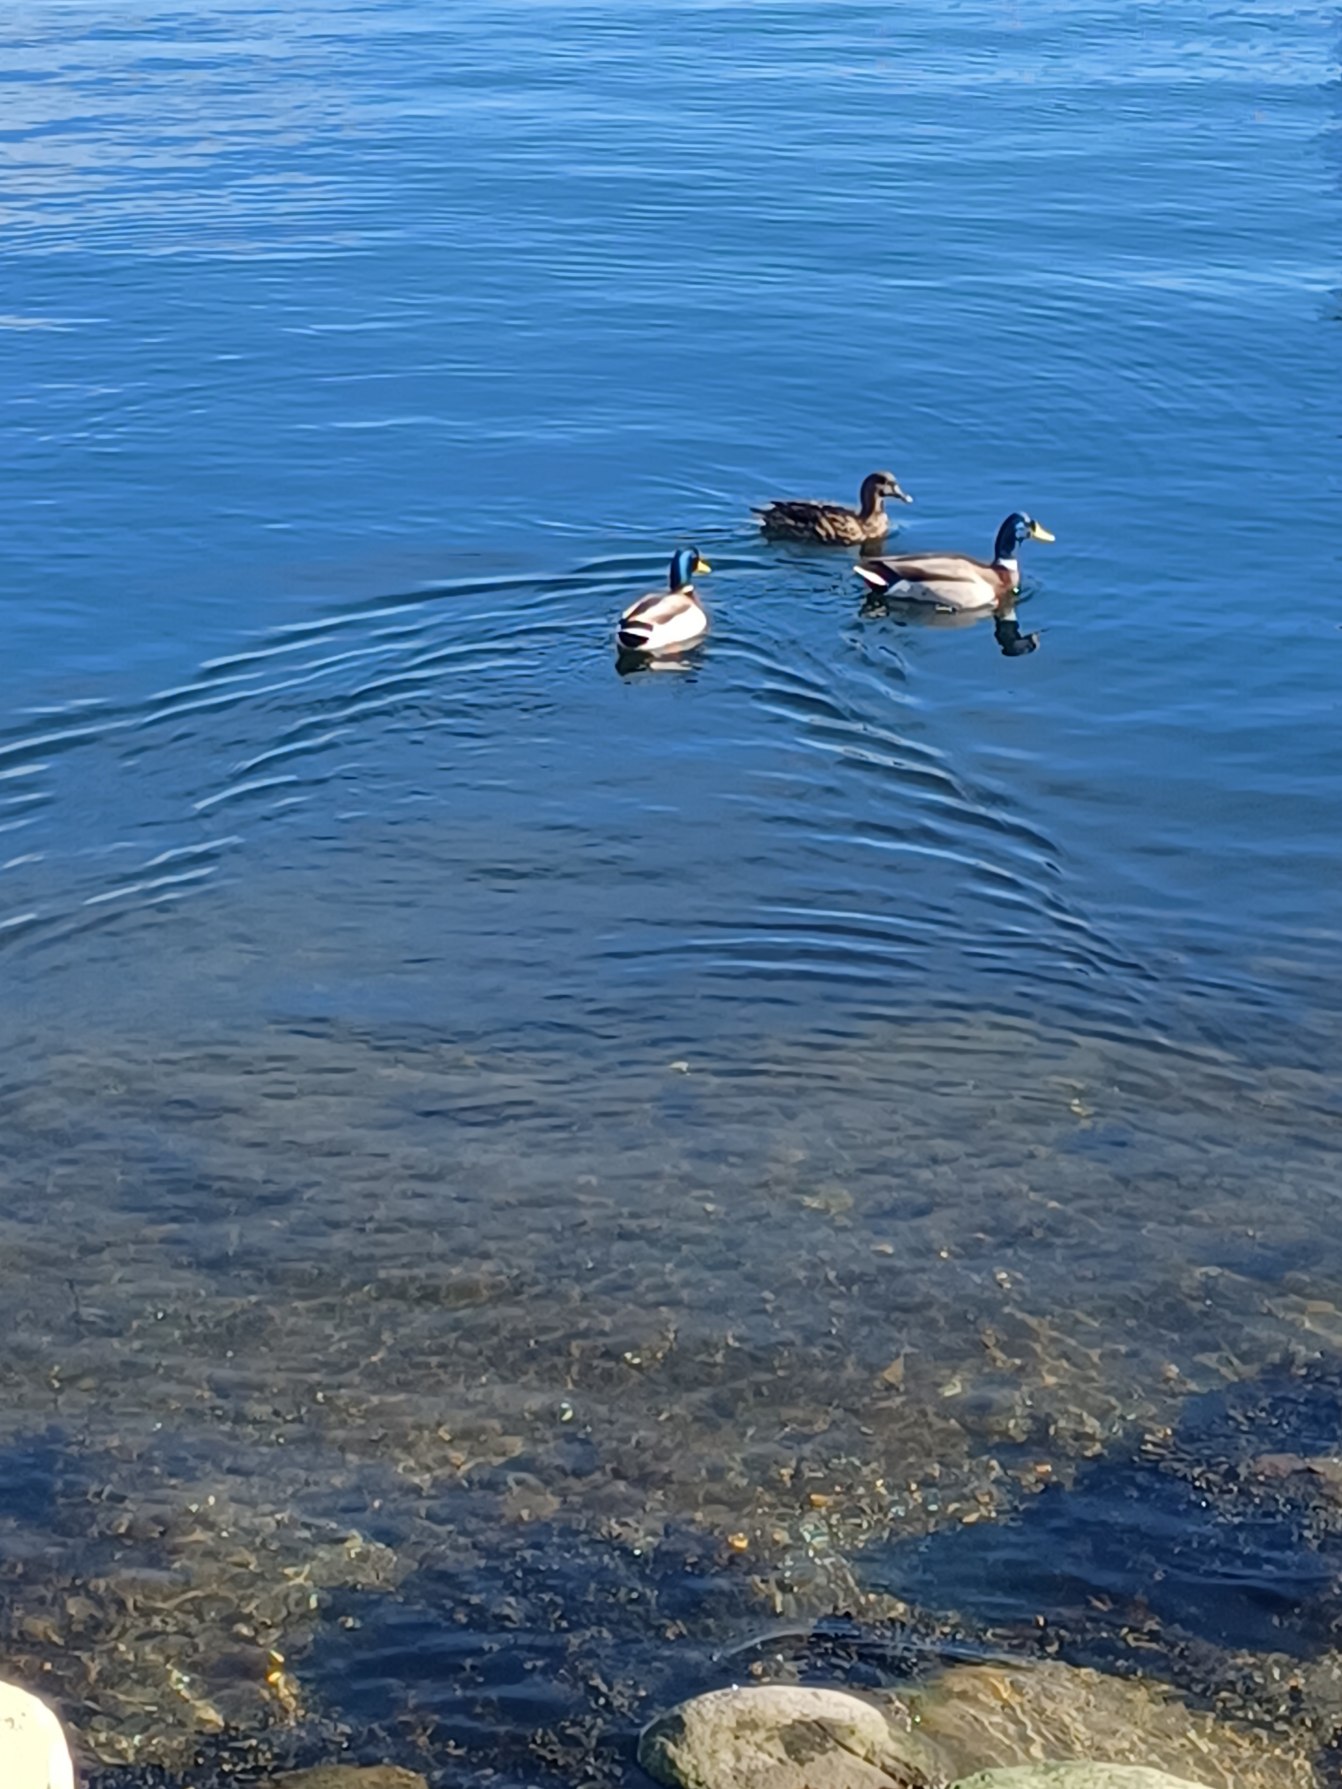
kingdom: Animalia
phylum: Chordata
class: Aves
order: Anseriformes
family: Anatidae
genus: Anas
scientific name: Anas platyrhynchos
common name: Gråand
